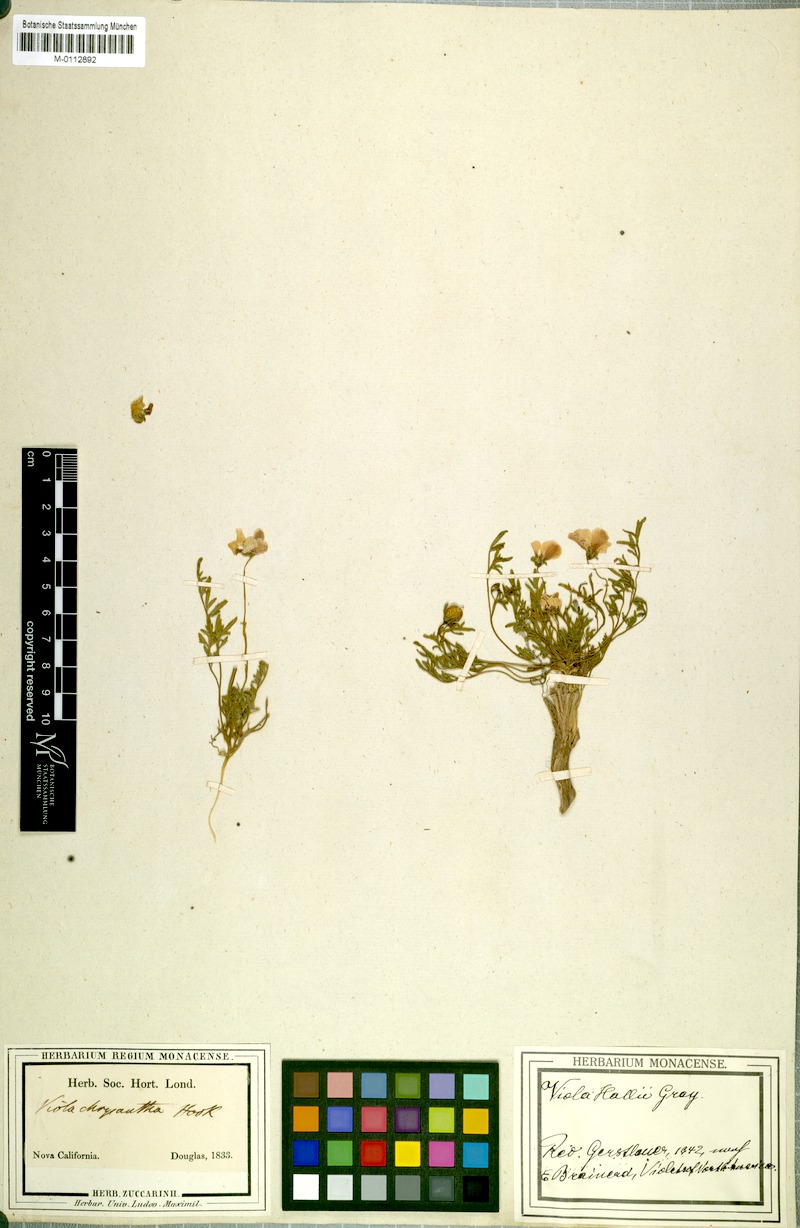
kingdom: Plantae
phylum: Tracheophyta
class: Magnoliopsida
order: Malpighiales
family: Violaceae
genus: Viola
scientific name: Viola hallii
